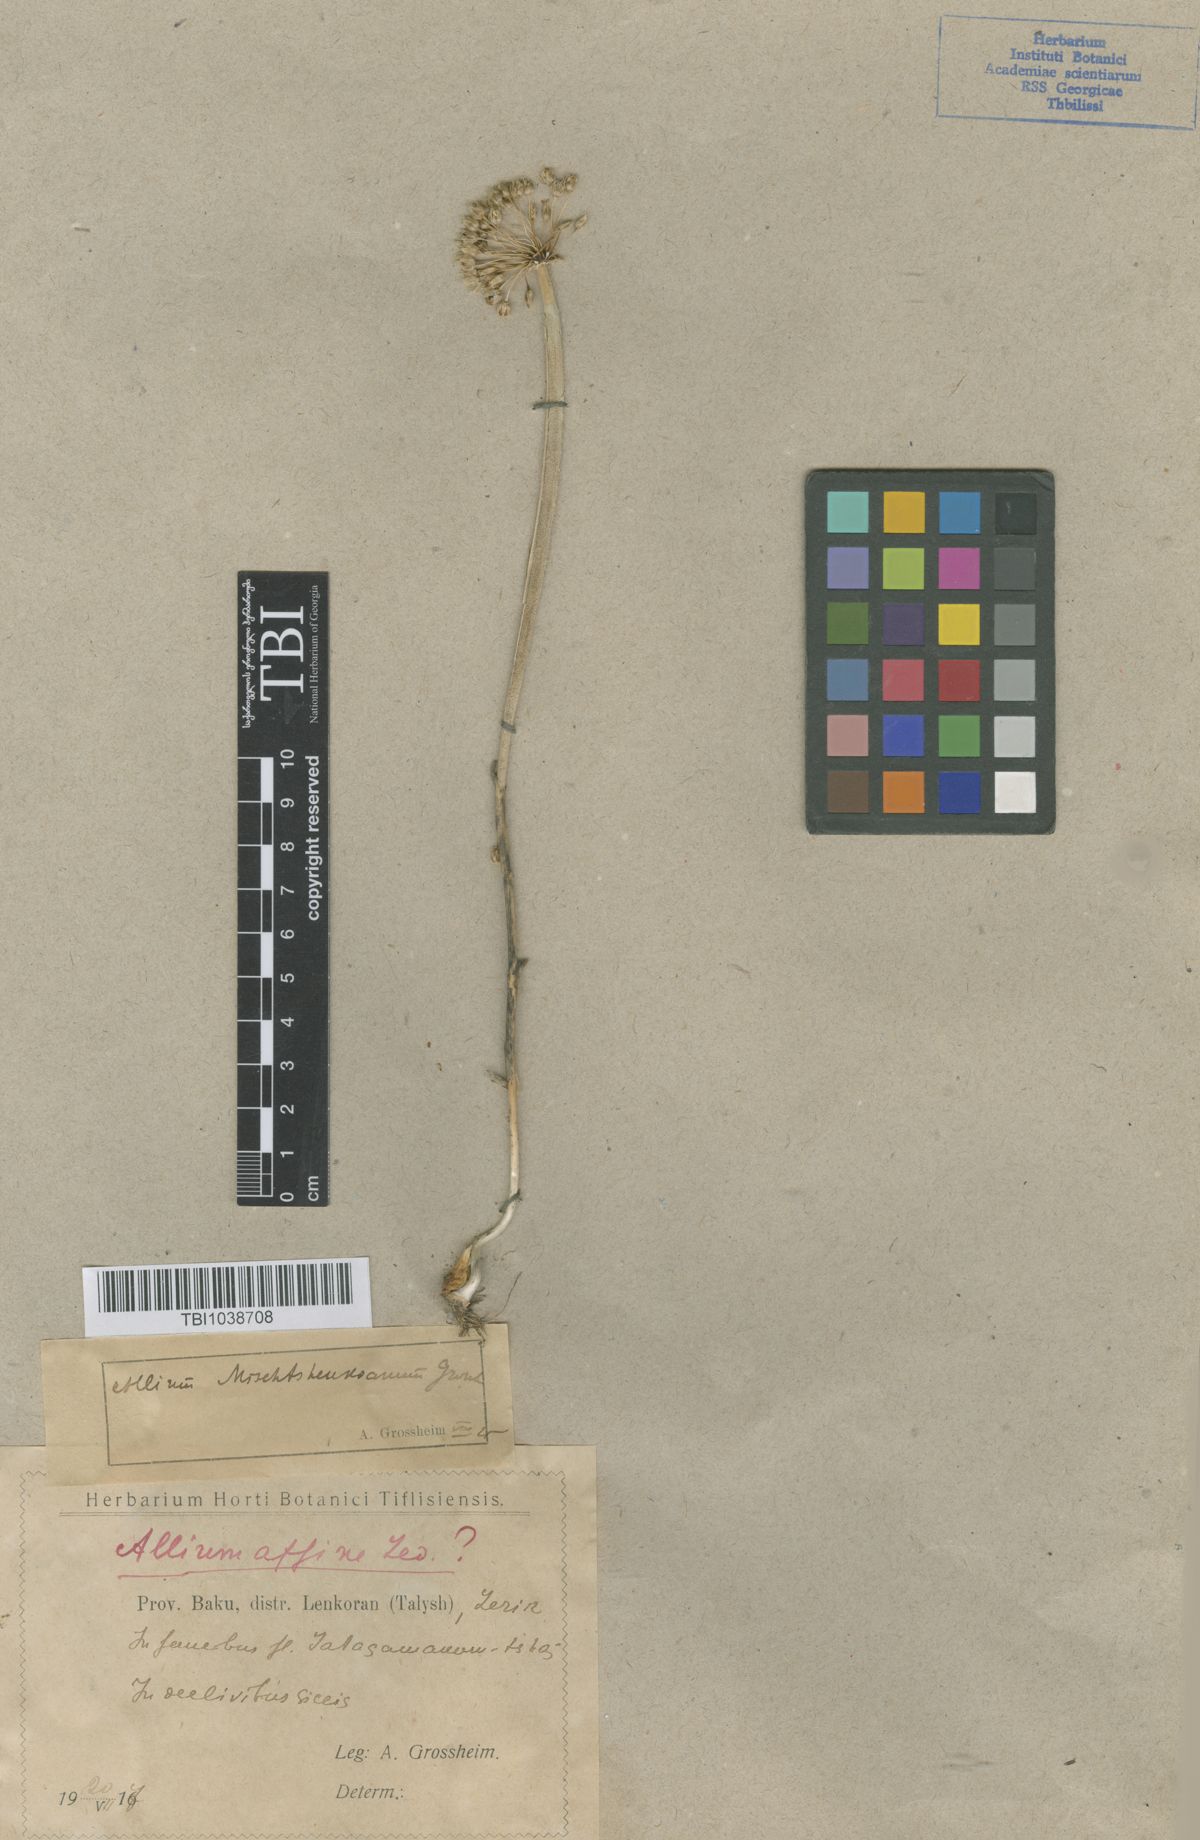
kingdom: Plantae
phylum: Tracheophyta
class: Liliopsida
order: Asparagales
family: Amaryllidaceae
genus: Allium
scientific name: Allium affine
